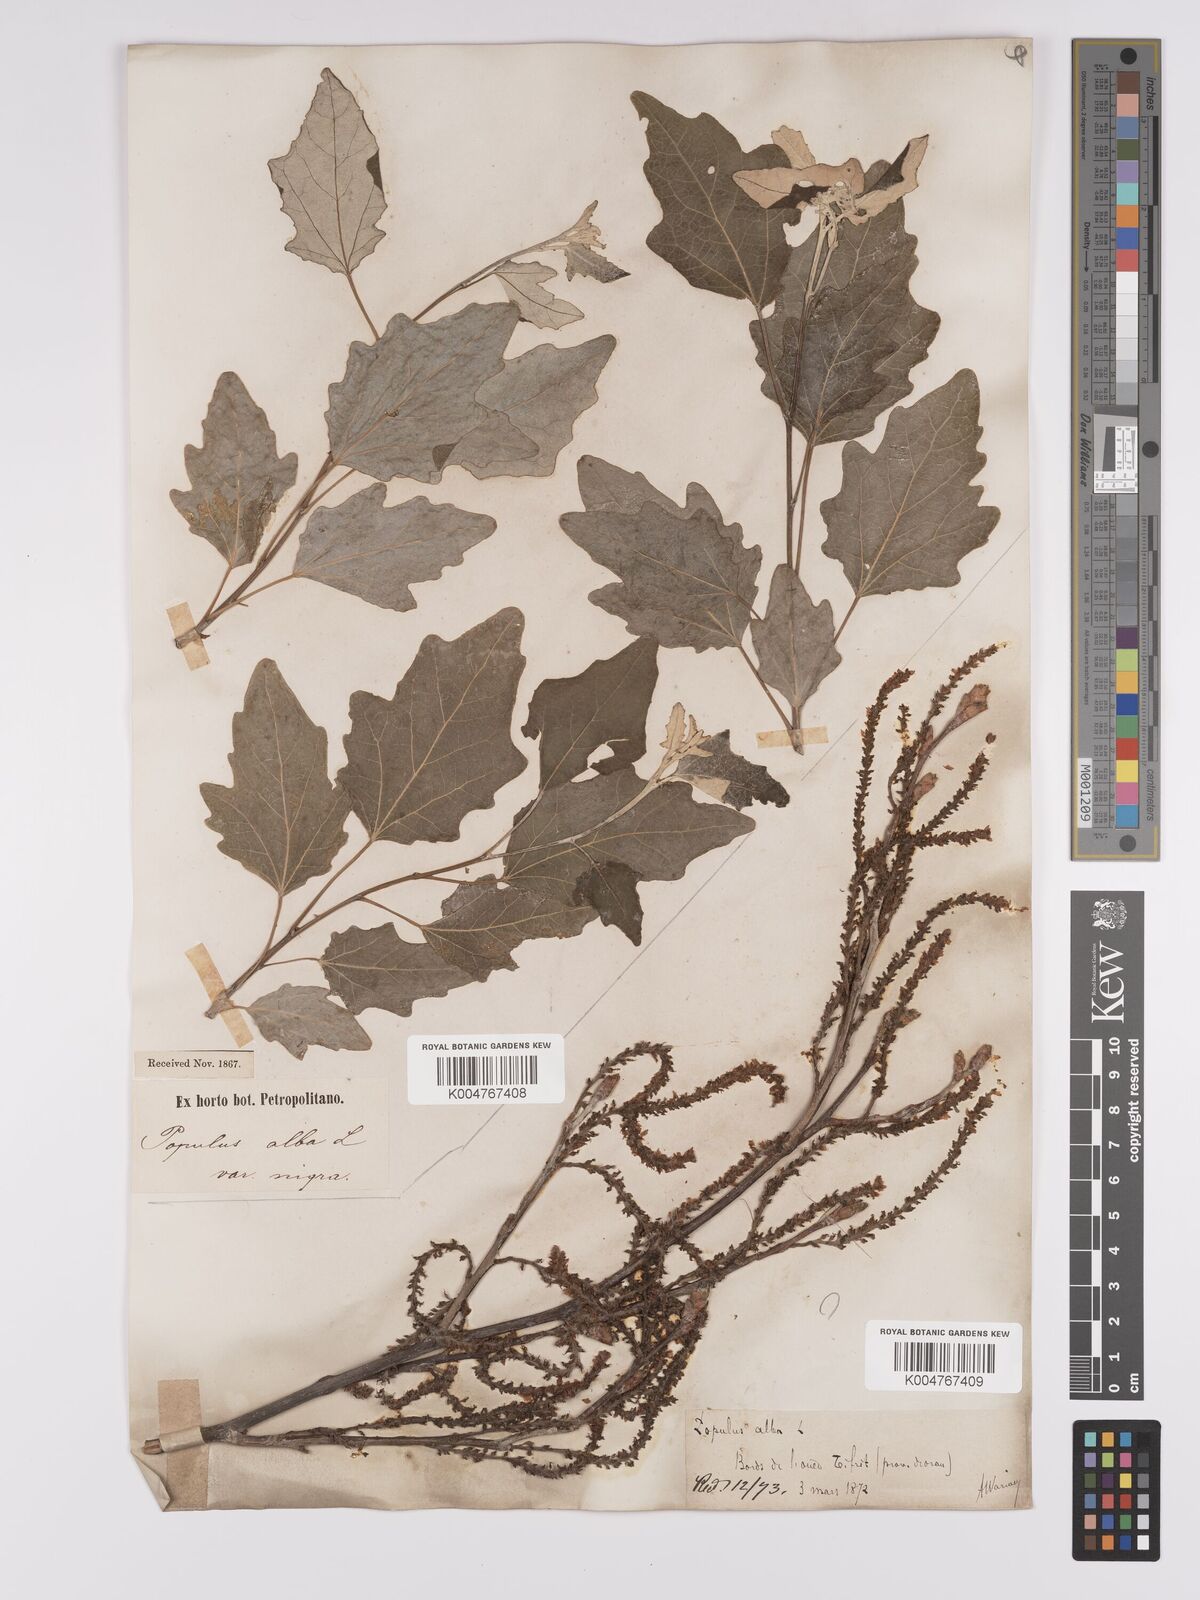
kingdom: Plantae
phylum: Tracheophyta
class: Magnoliopsida
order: Malpighiales
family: Salicaceae
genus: Populus
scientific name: Populus alba
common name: White poplar
